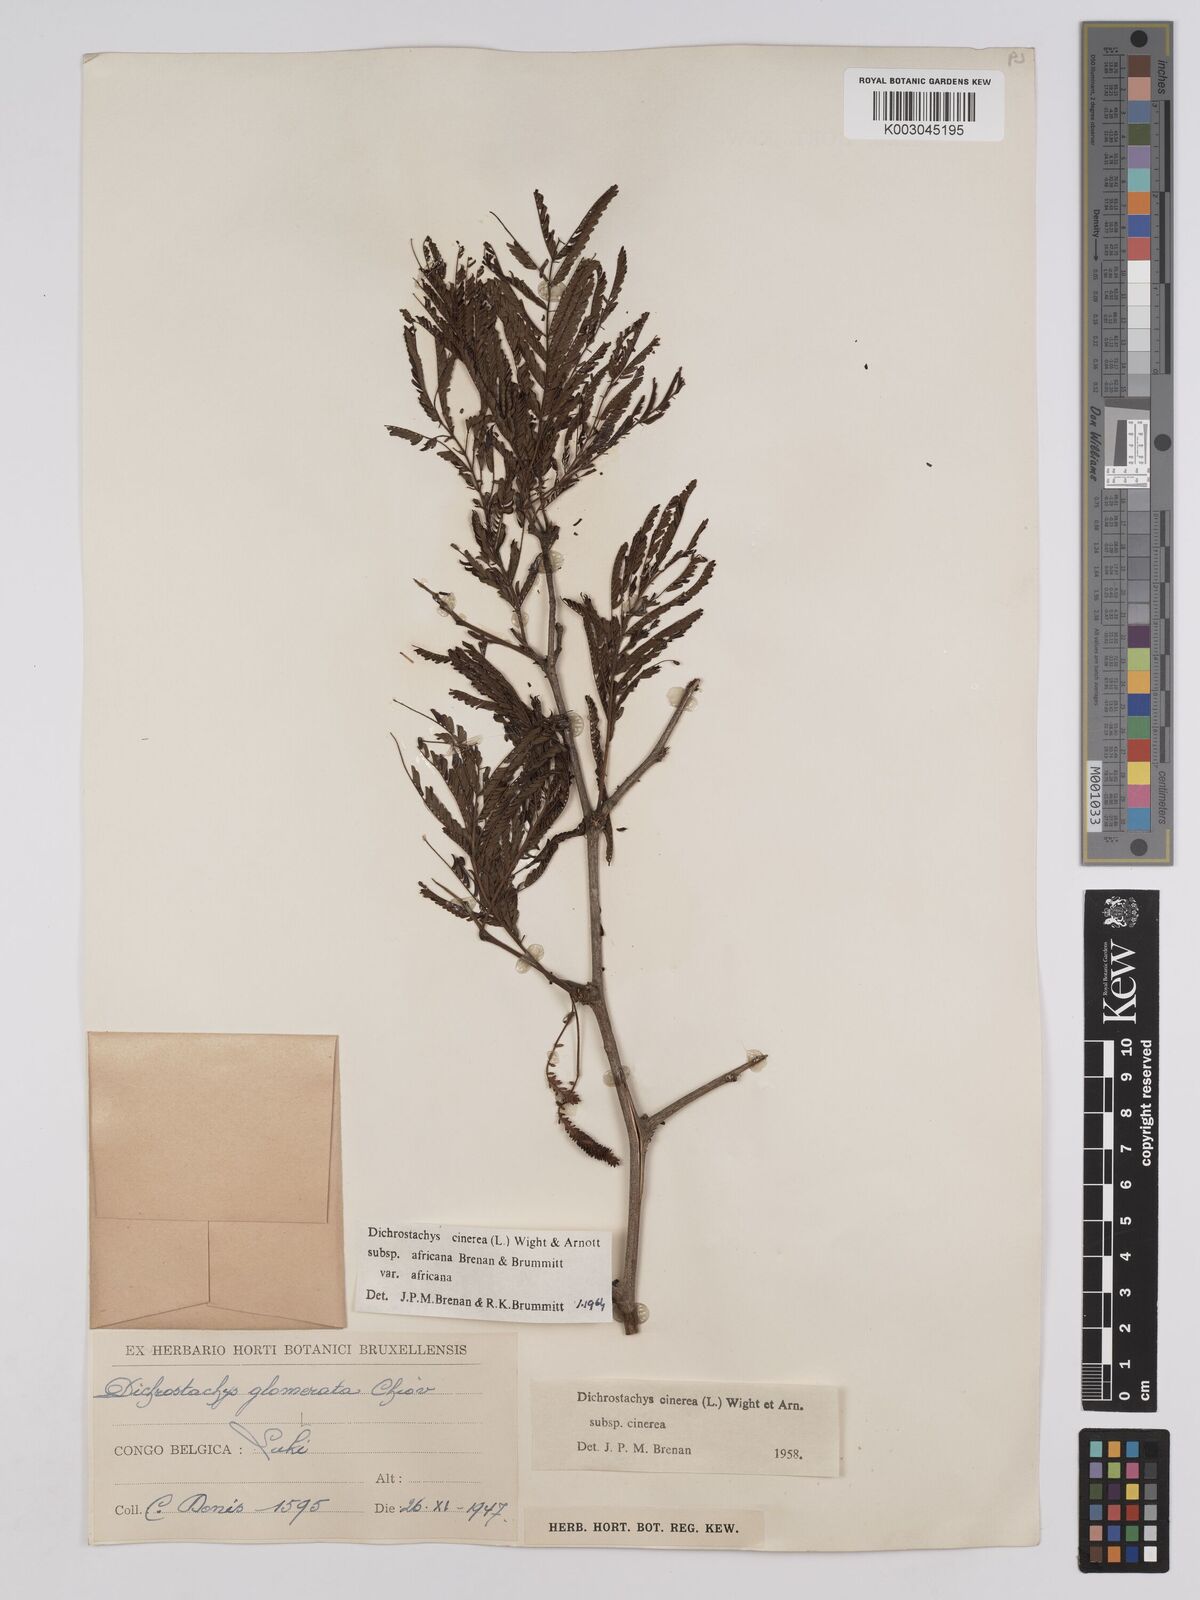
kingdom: Plantae
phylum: Tracheophyta
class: Magnoliopsida
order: Fabales
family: Fabaceae
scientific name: Fabaceae
